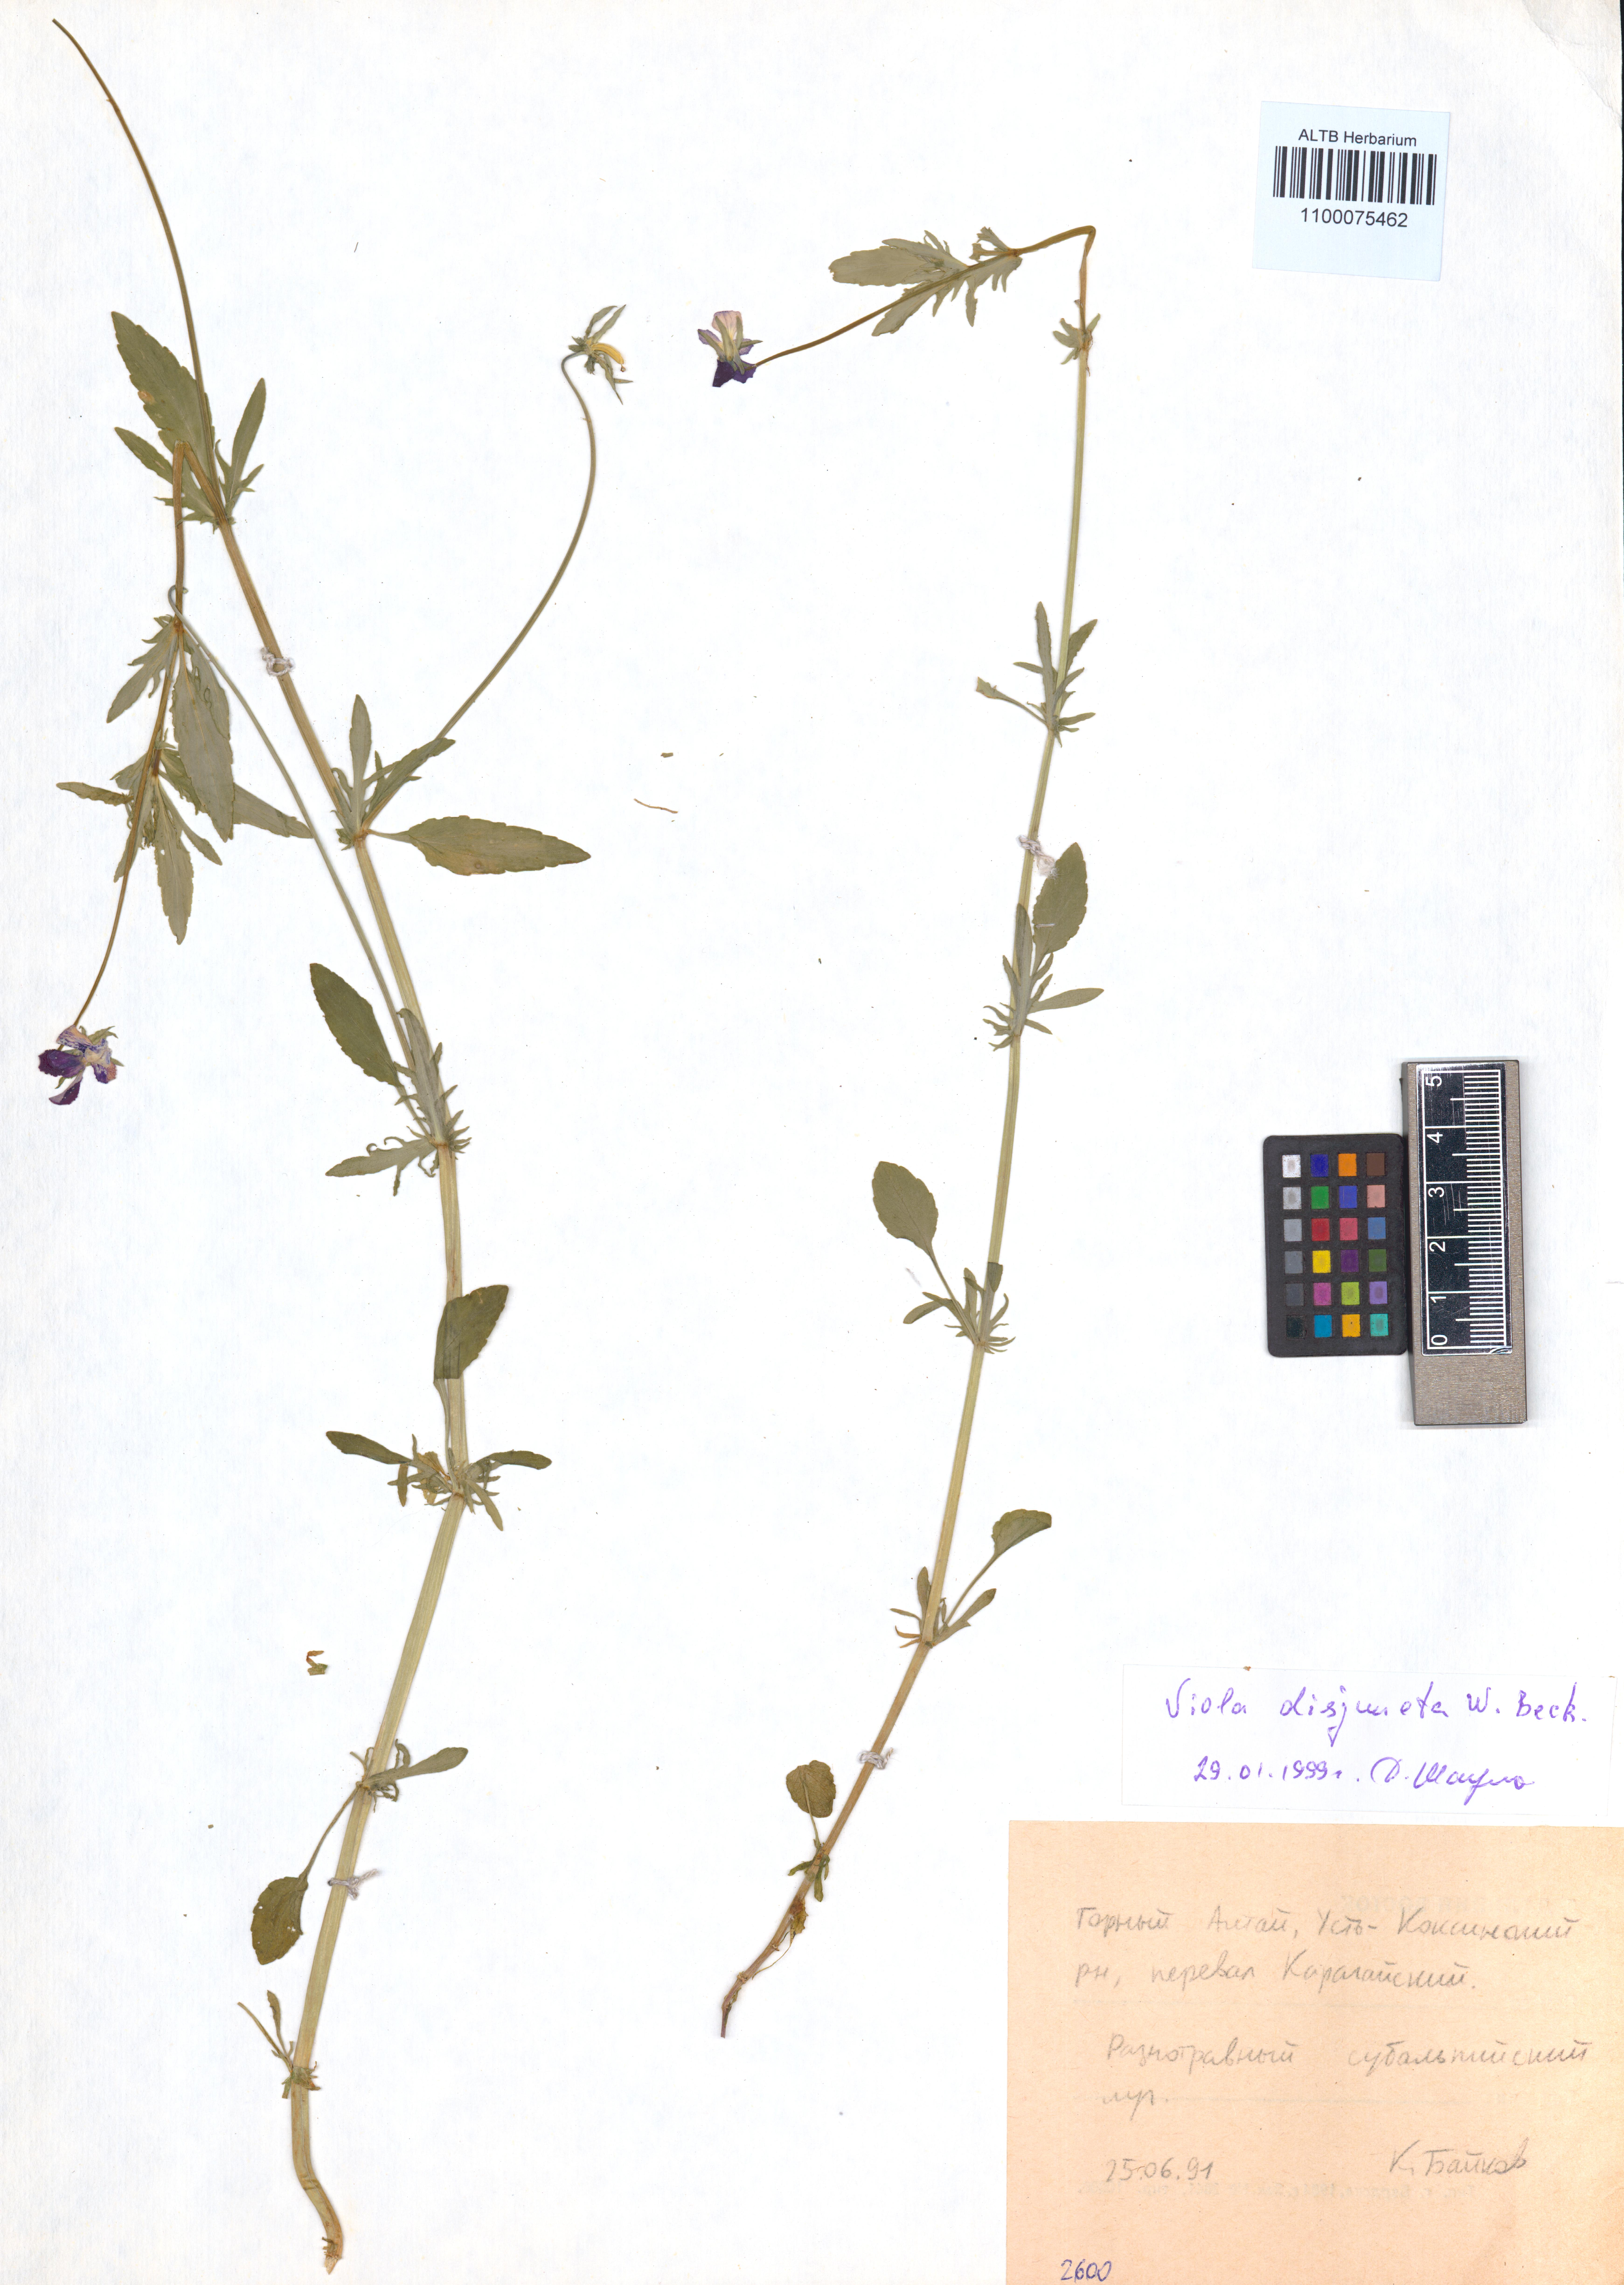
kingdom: Plantae
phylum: Tracheophyta
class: Magnoliopsida
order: Malpighiales
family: Violaceae
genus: Viola
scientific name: Viola tricolor
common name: Pansy
